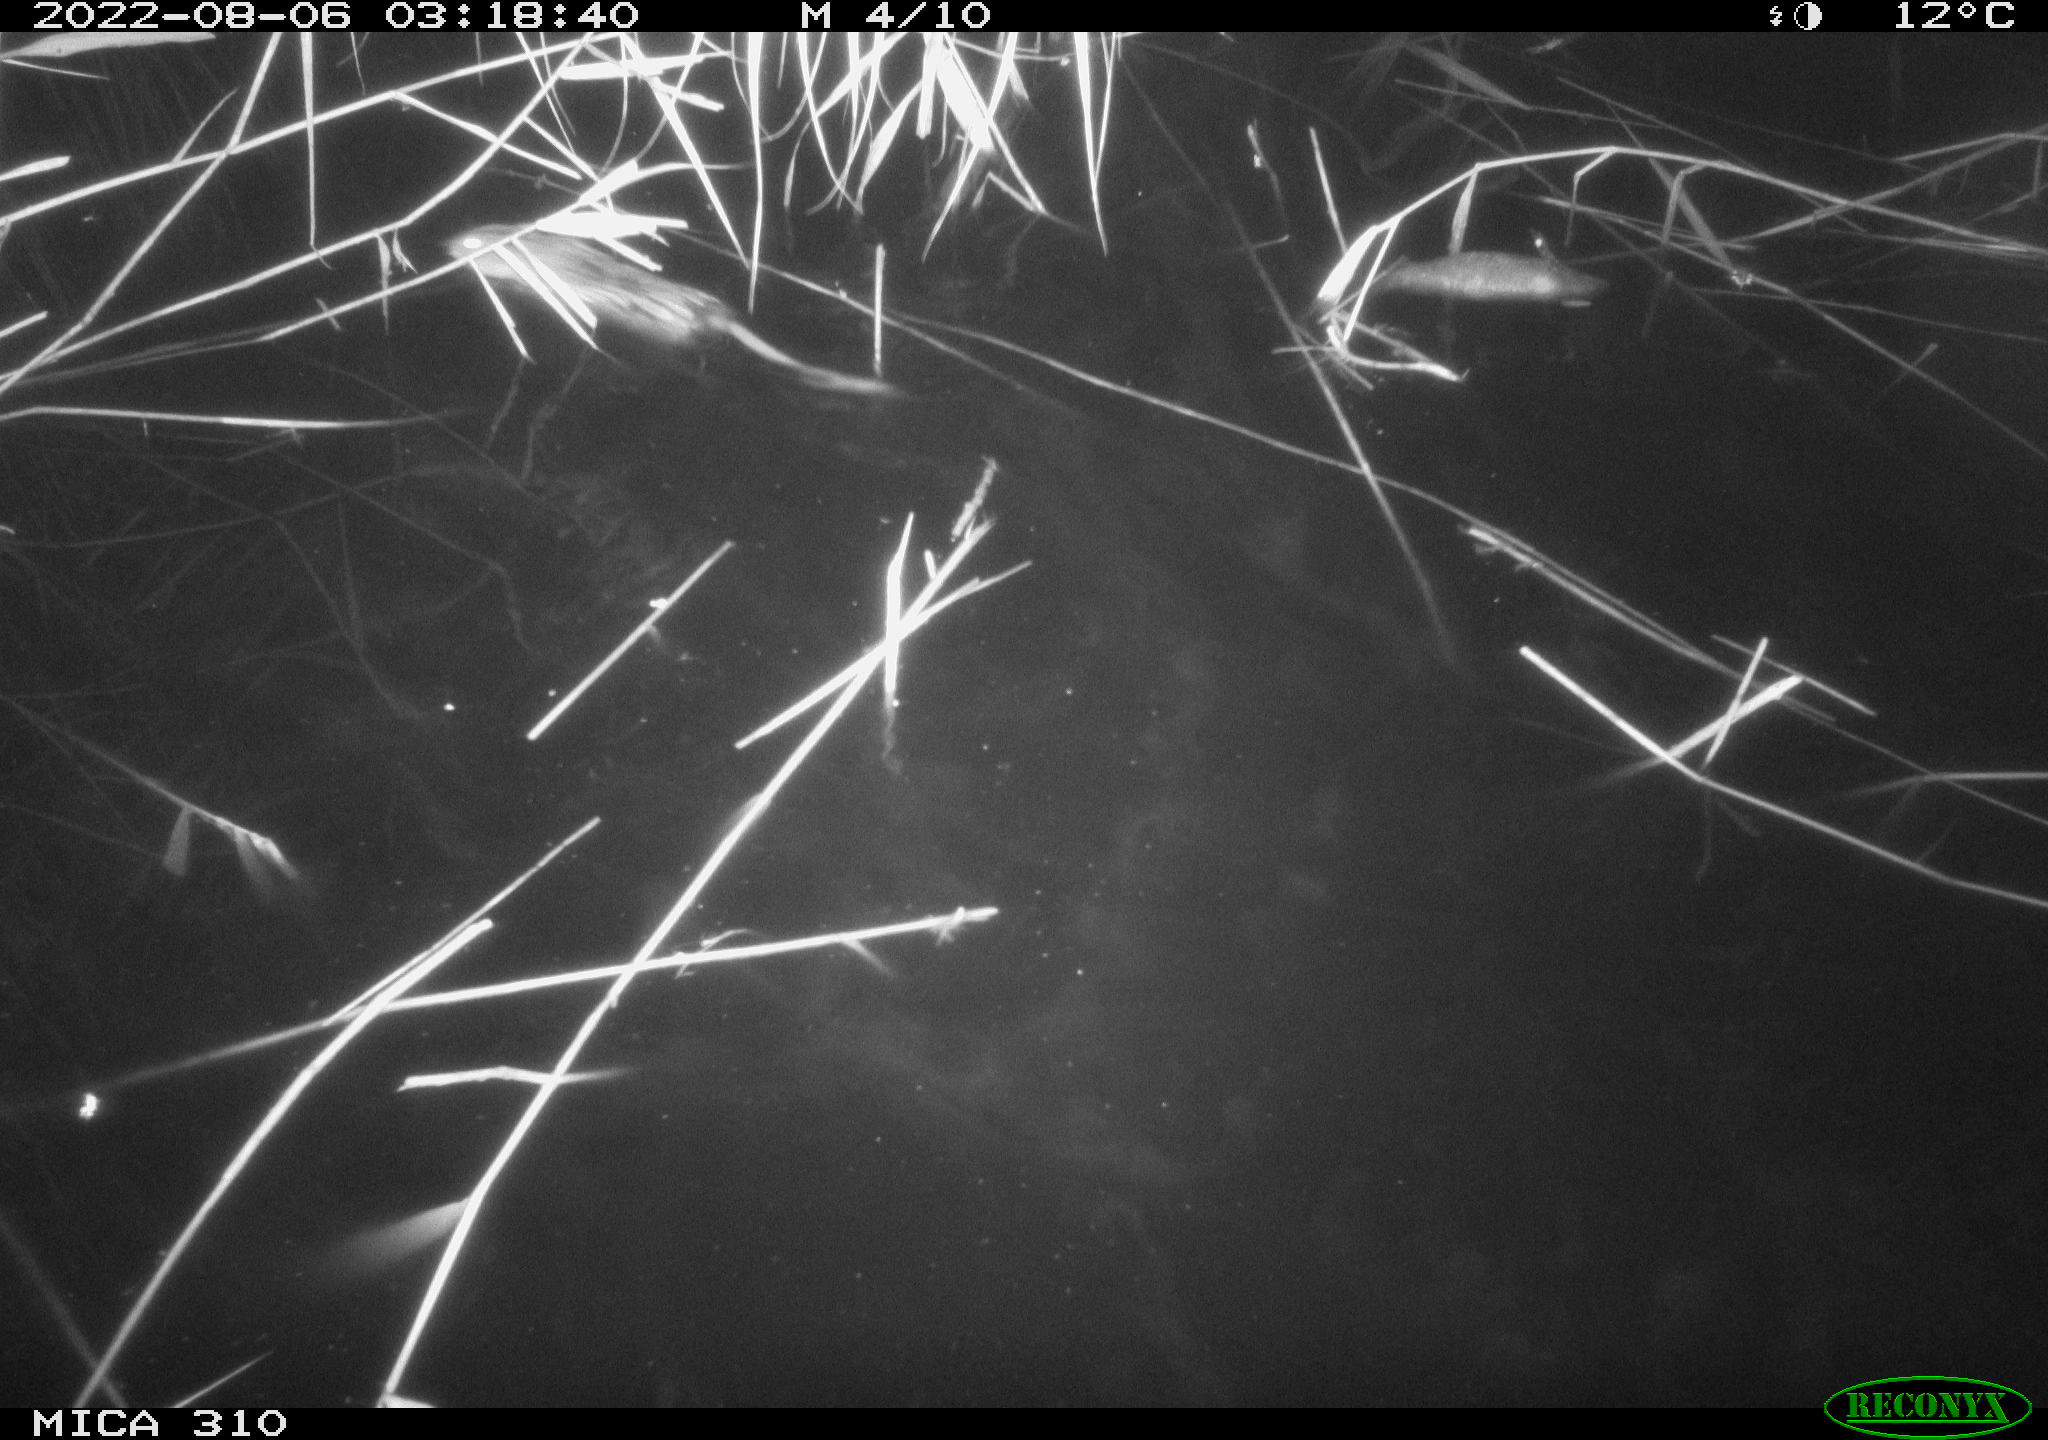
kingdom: Animalia
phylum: Chordata
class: Mammalia
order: Rodentia
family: Cricetidae
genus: Ondatra
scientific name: Ondatra zibethicus
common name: Muskrat
